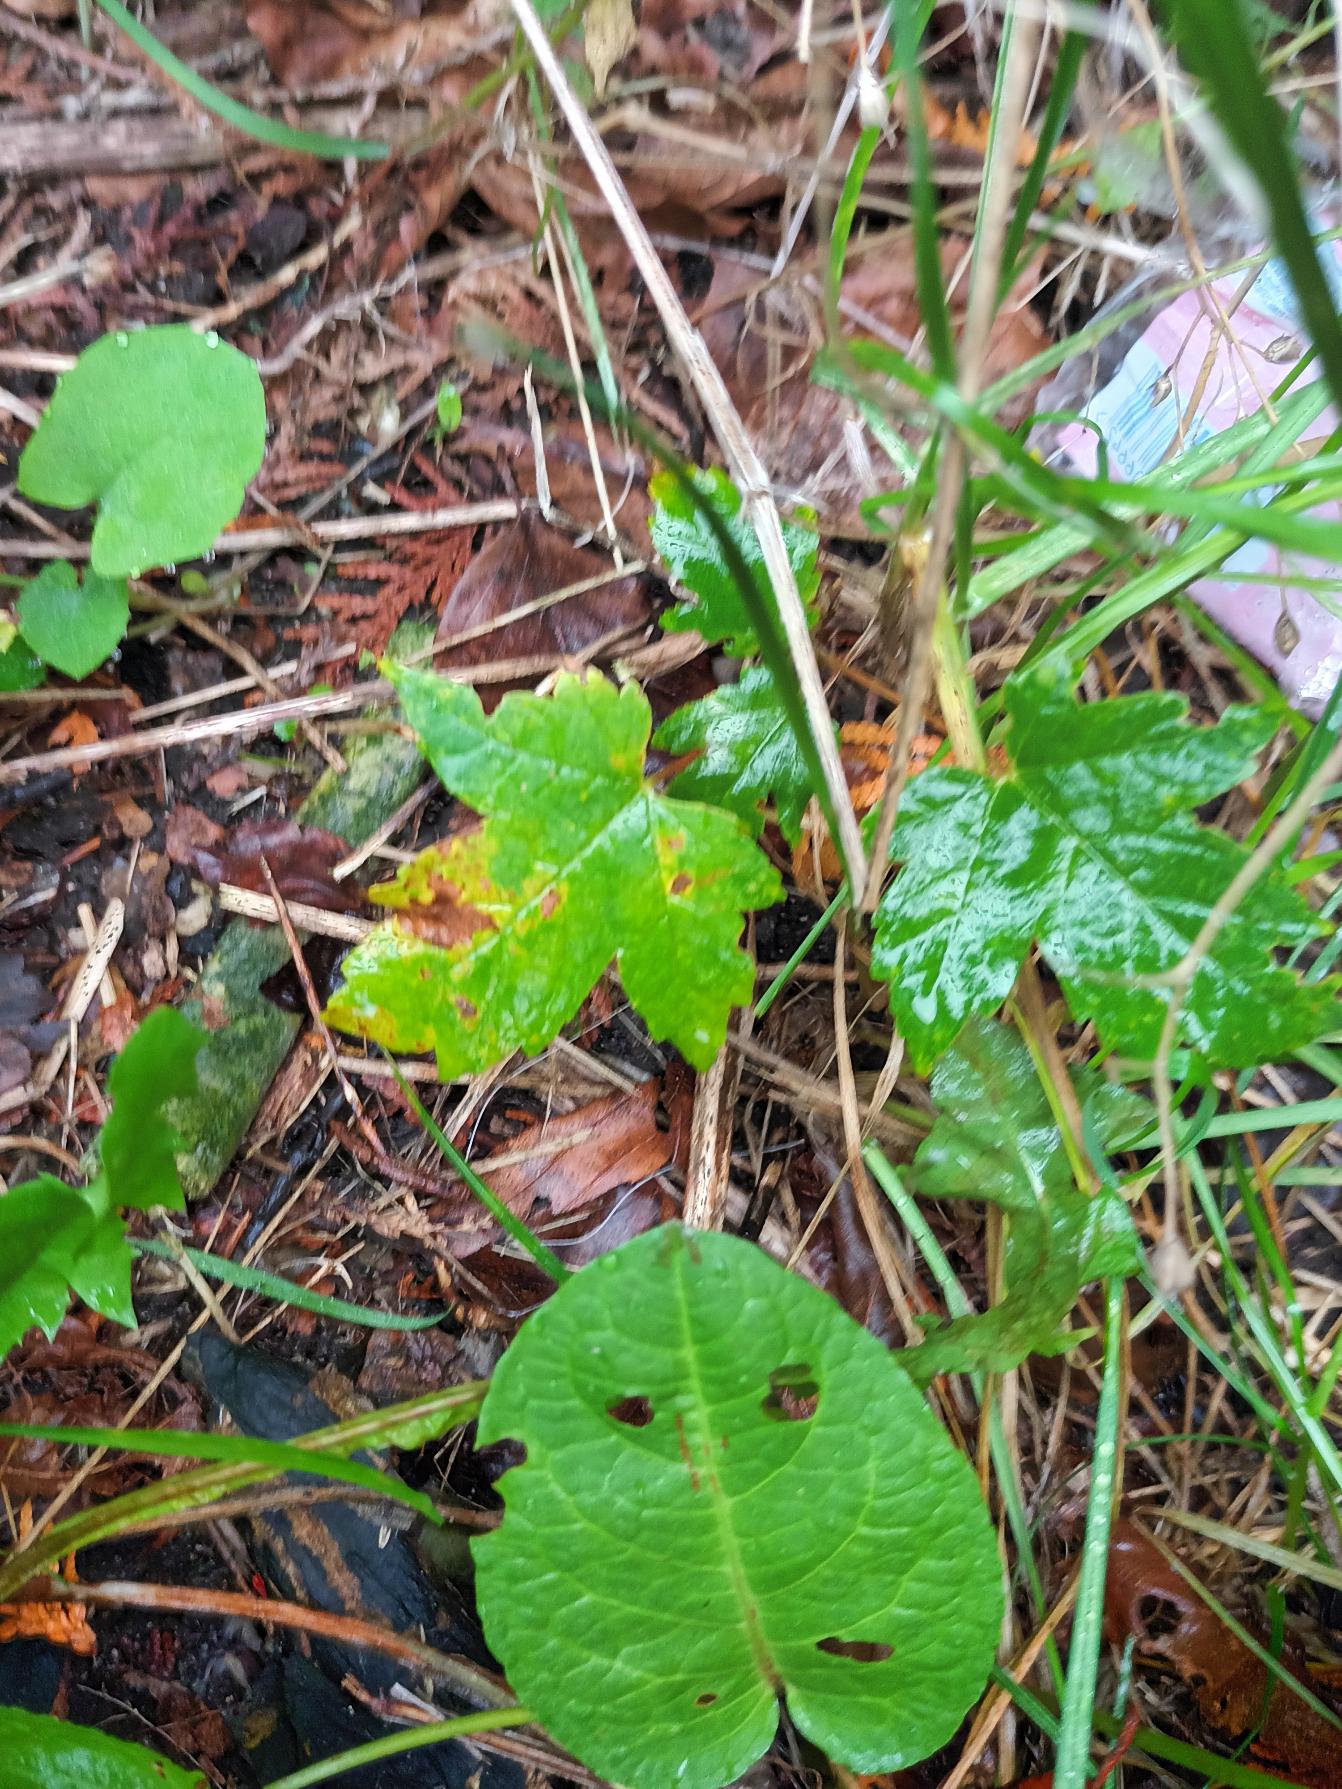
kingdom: Plantae
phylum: Tracheophyta
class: Magnoliopsida
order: Sapindales
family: Sapindaceae
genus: Acer
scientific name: Acer pseudoplatanus
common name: Ahorn
